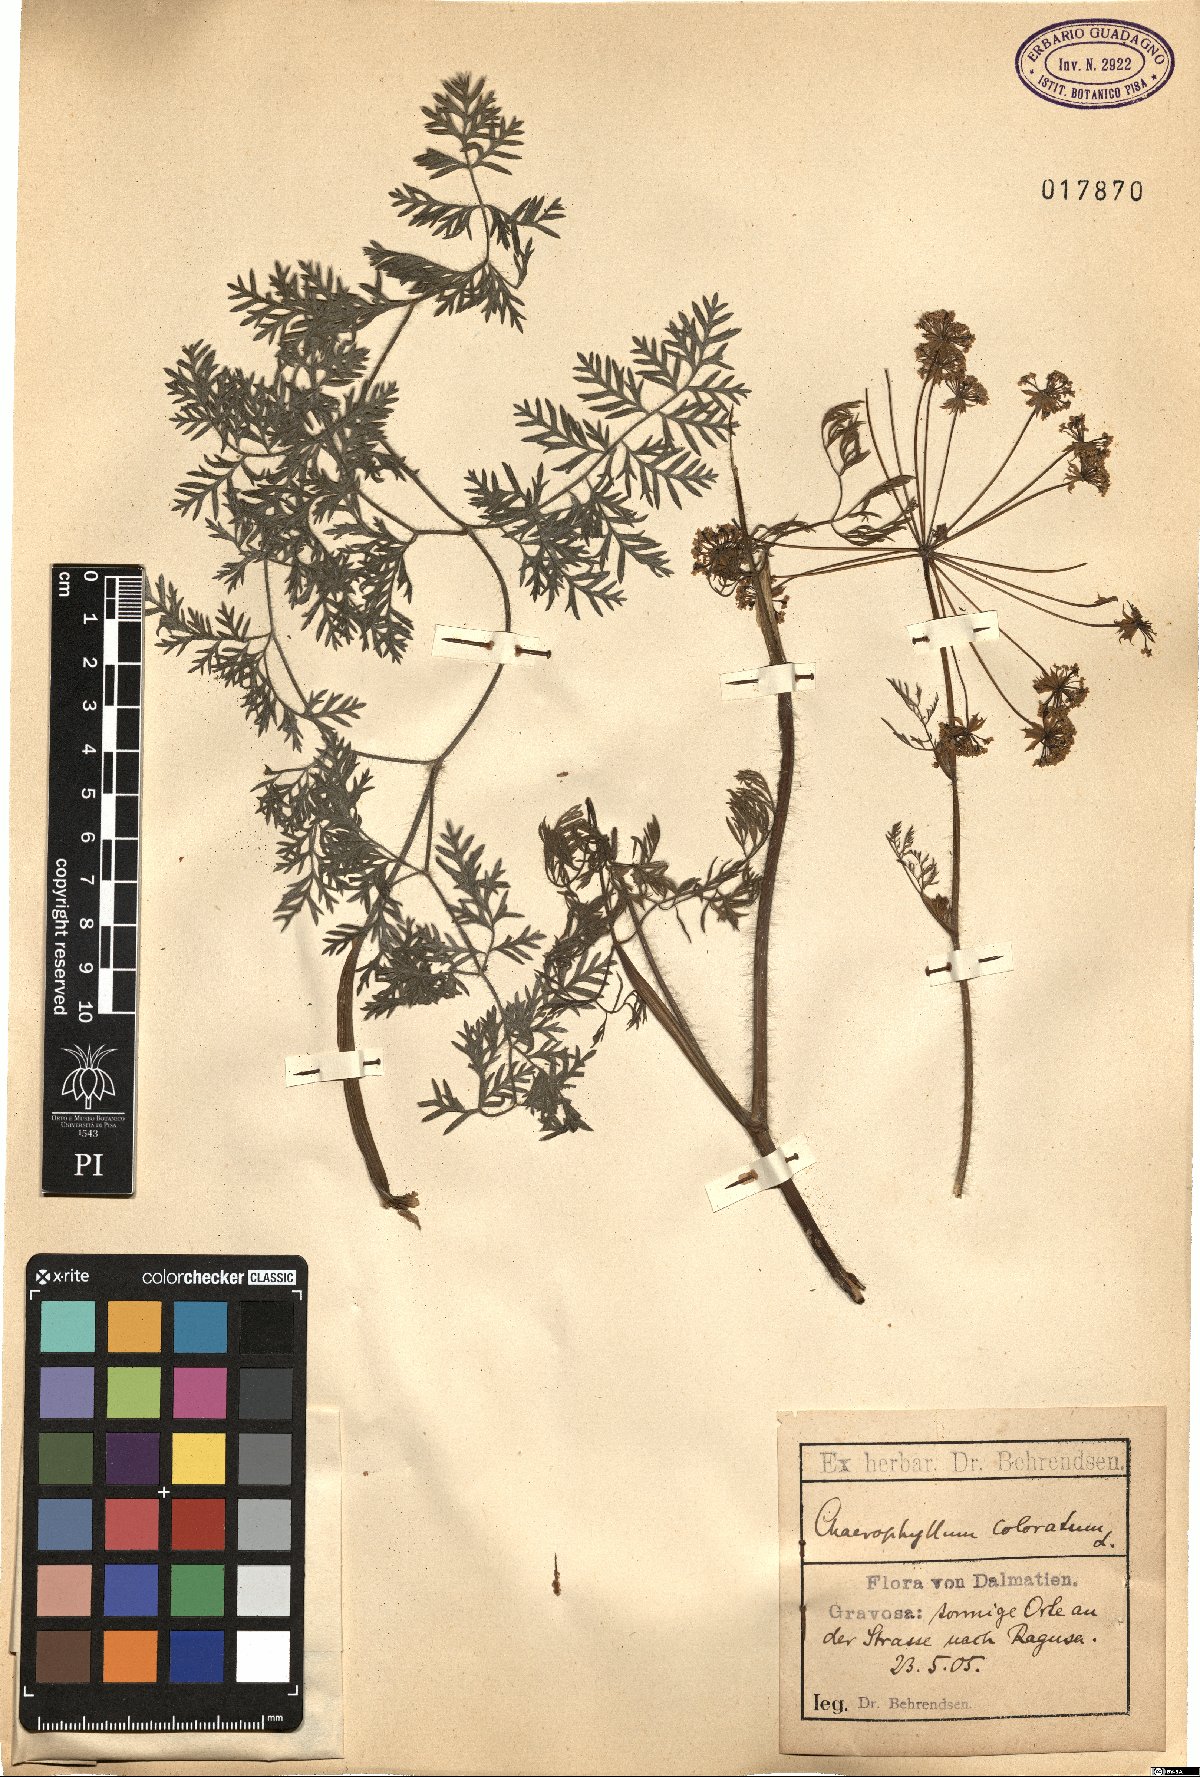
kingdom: Plantae
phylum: Tracheophyta
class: Magnoliopsida
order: Apiales
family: Apiaceae
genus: Chaerophyllum
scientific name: Chaerophyllum coloratum
